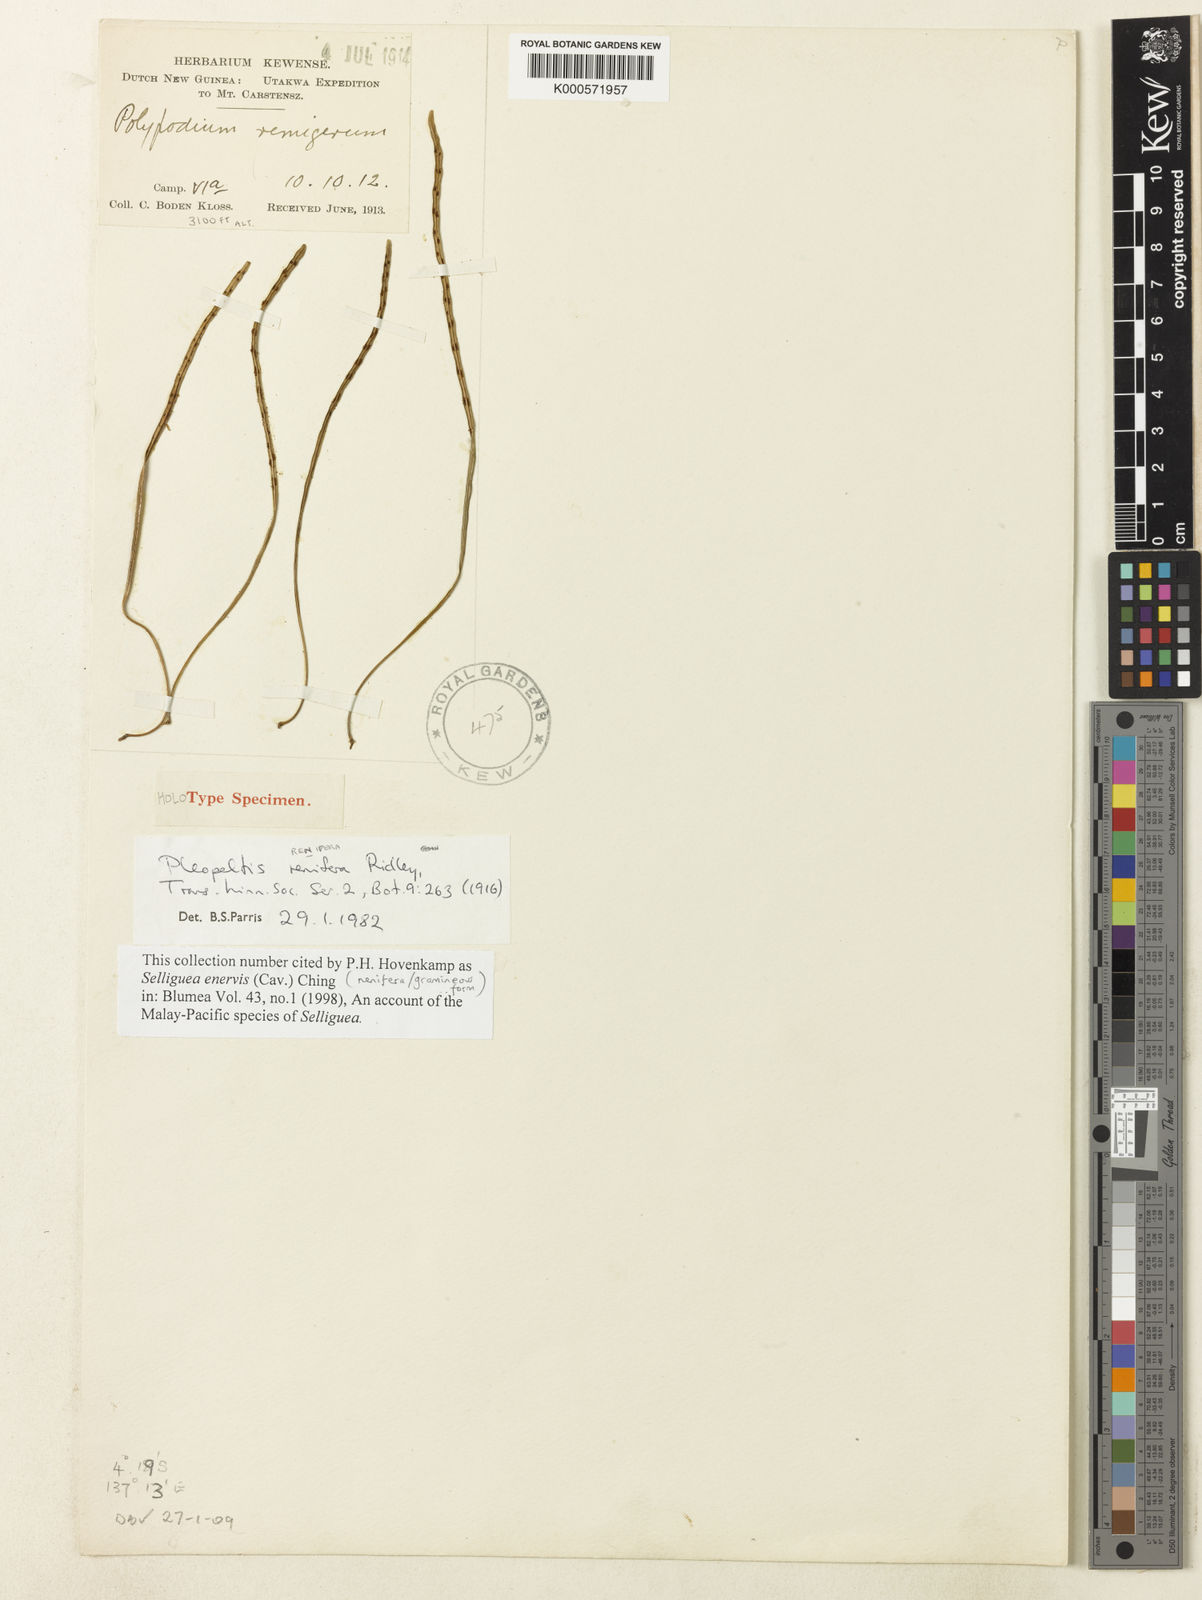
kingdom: Plantae
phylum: Tracheophyta
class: Polypodiopsida
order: Polypodiales
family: Polypodiaceae
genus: Selliguea
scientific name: Selliguea enervis
